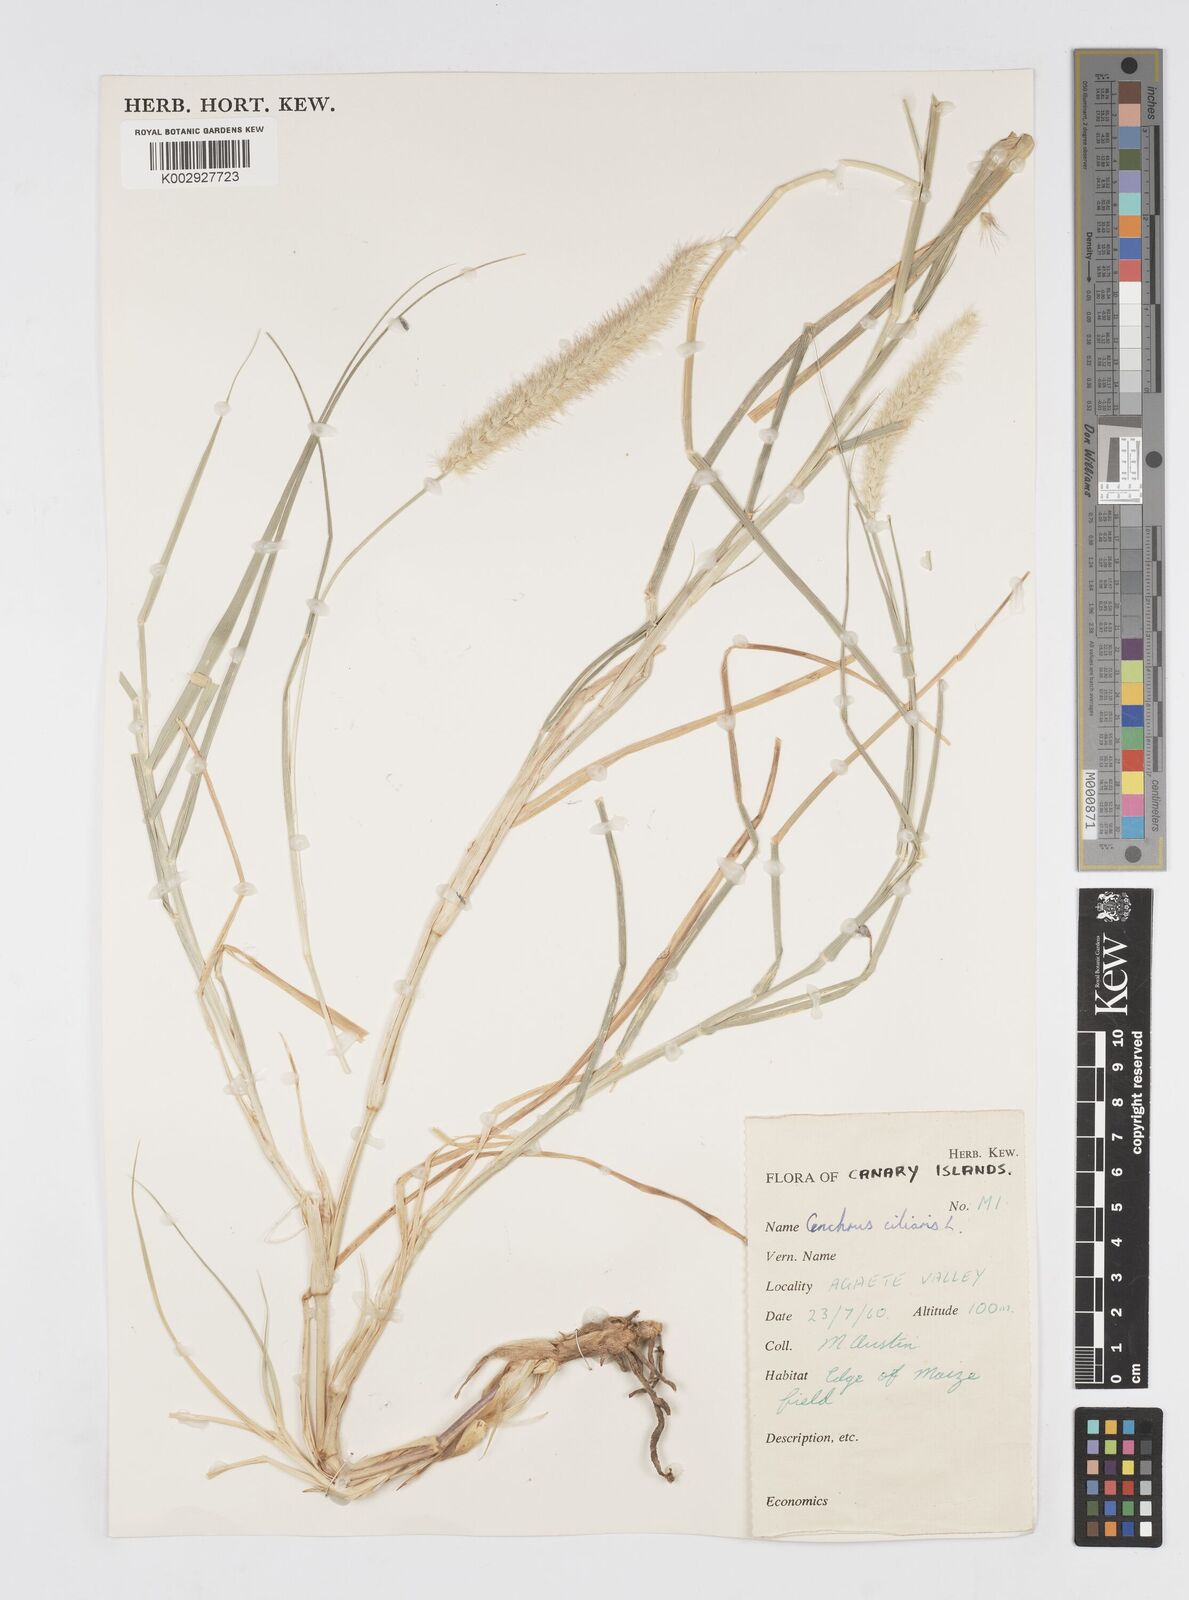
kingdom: Plantae
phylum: Tracheophyta
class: Liliopsida
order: Poales
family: Poaceae
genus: Cenchrus
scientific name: Cenchrus ciliaris
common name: Buffelgrass
